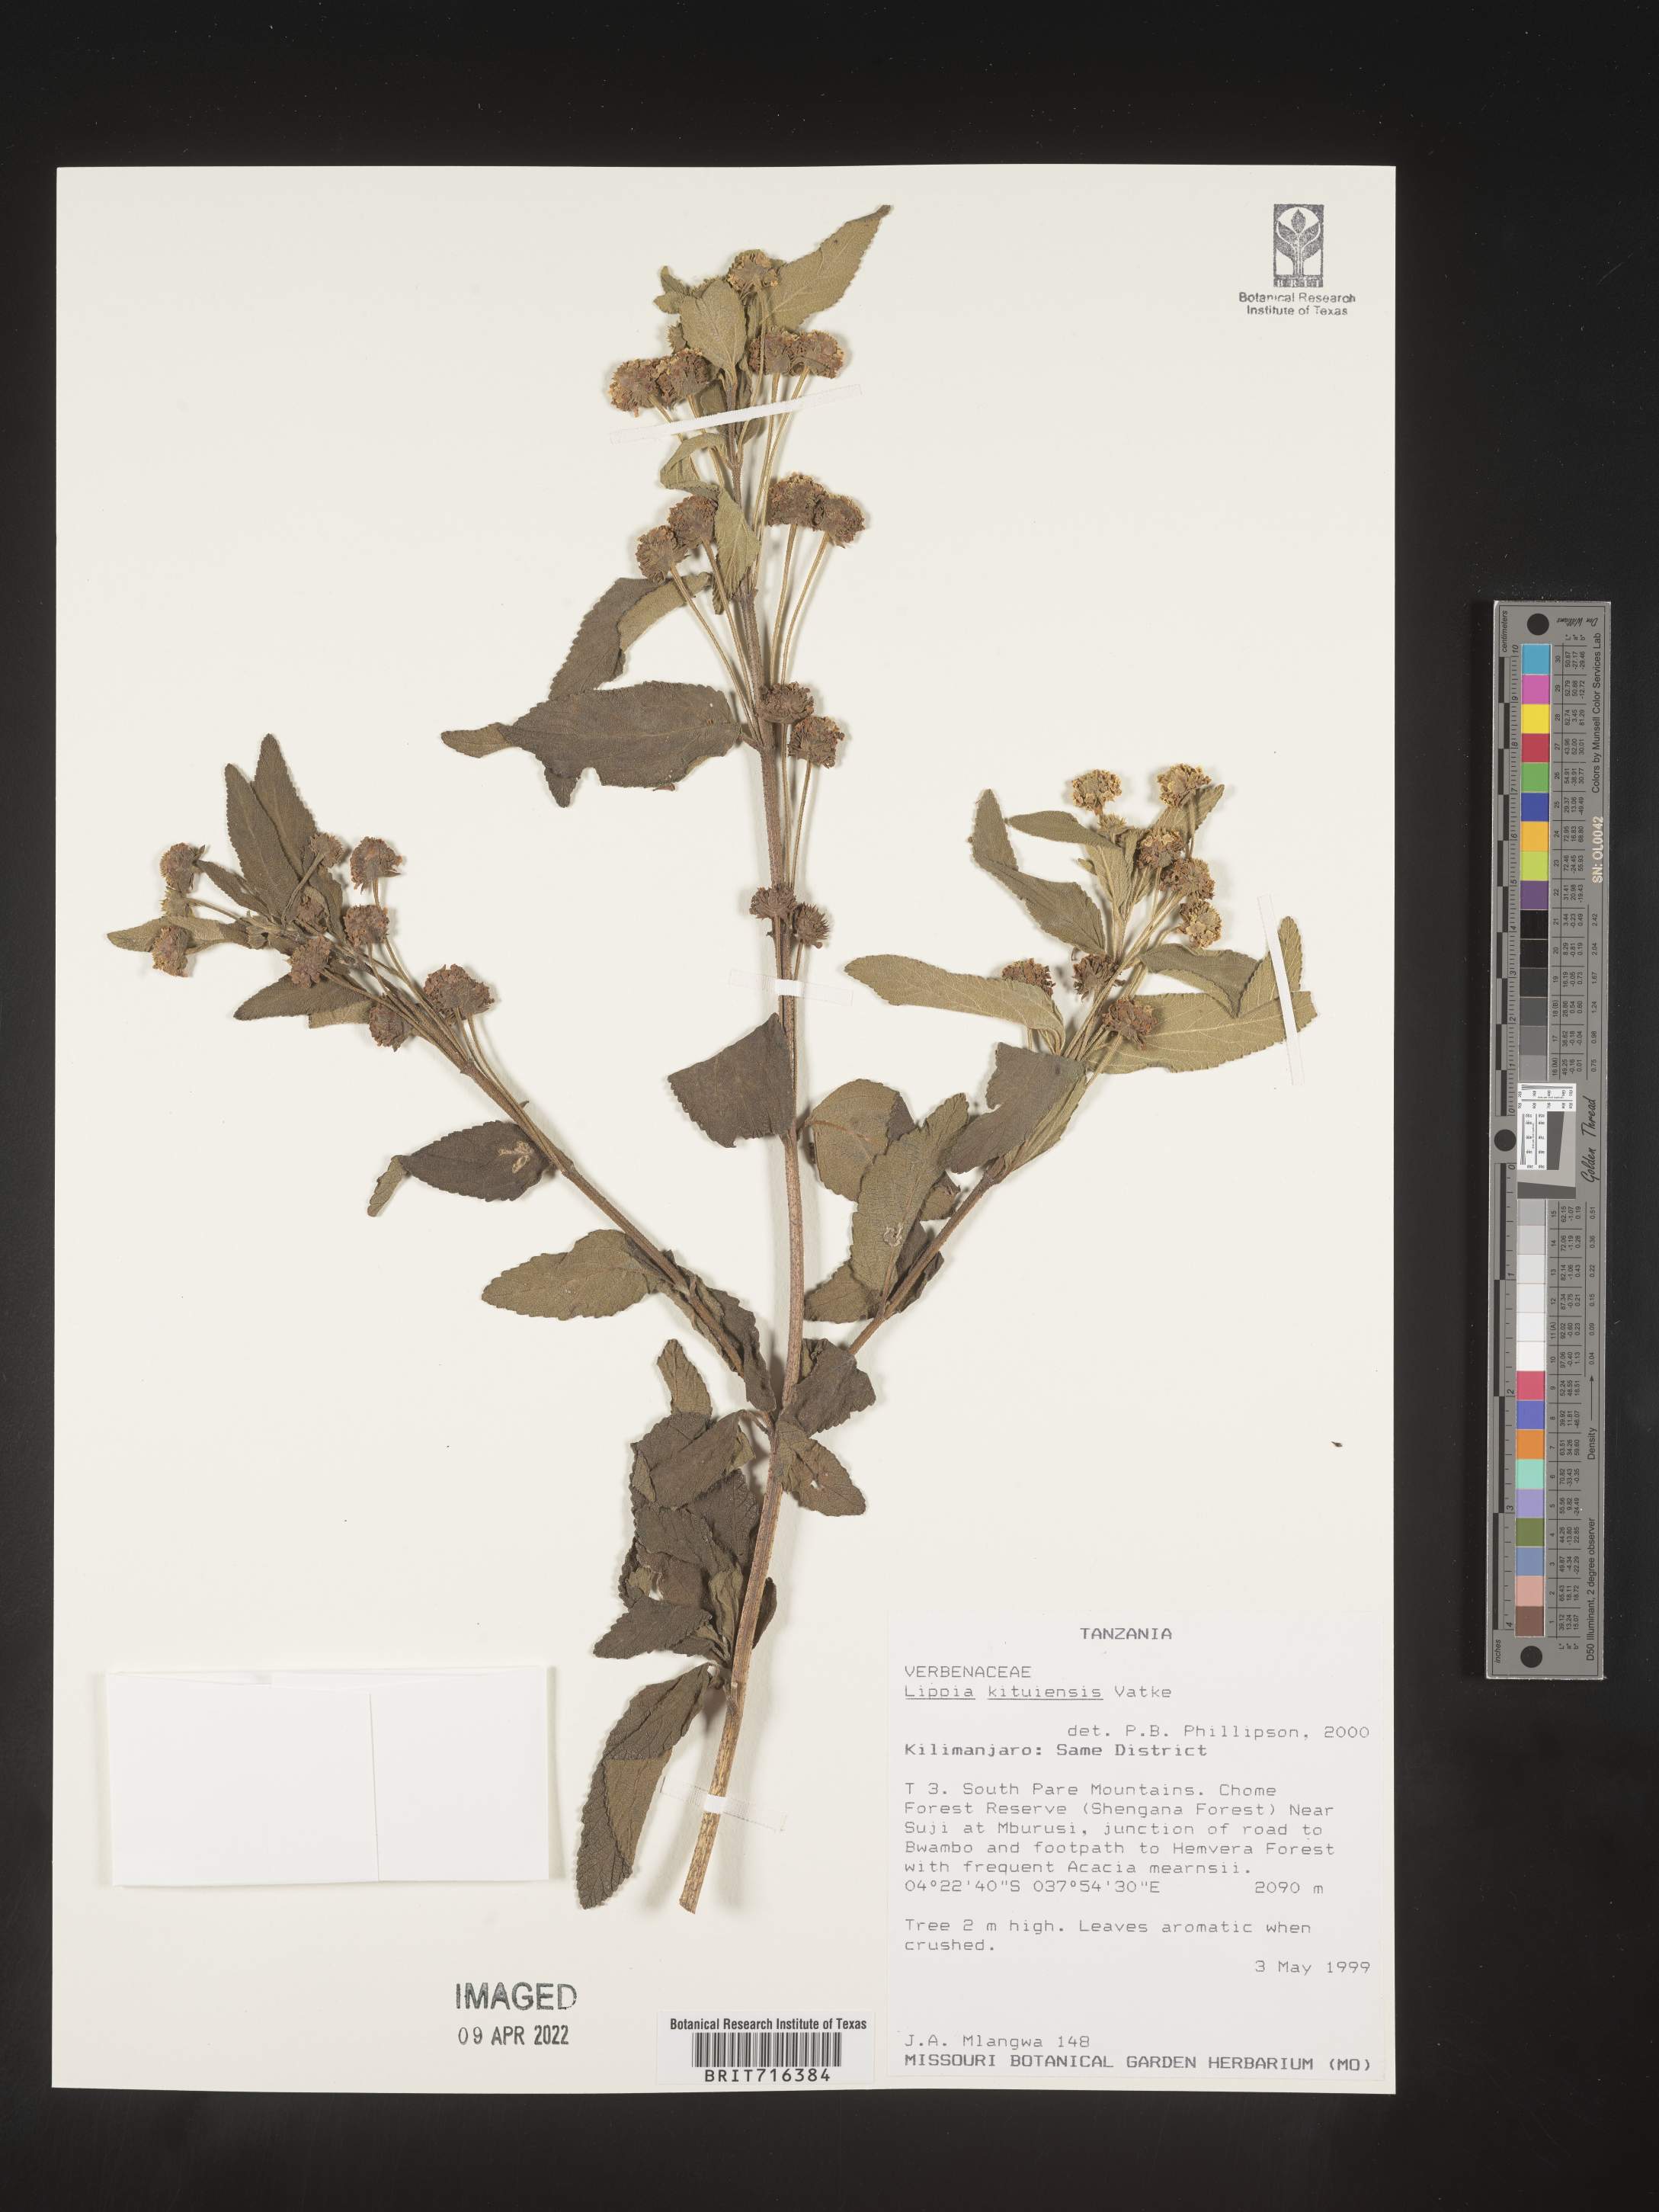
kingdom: Plantae
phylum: Tracheophyta
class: Magnoliopsida
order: Lamiales
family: Verbenaceae
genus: Lippia
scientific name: Lippia
